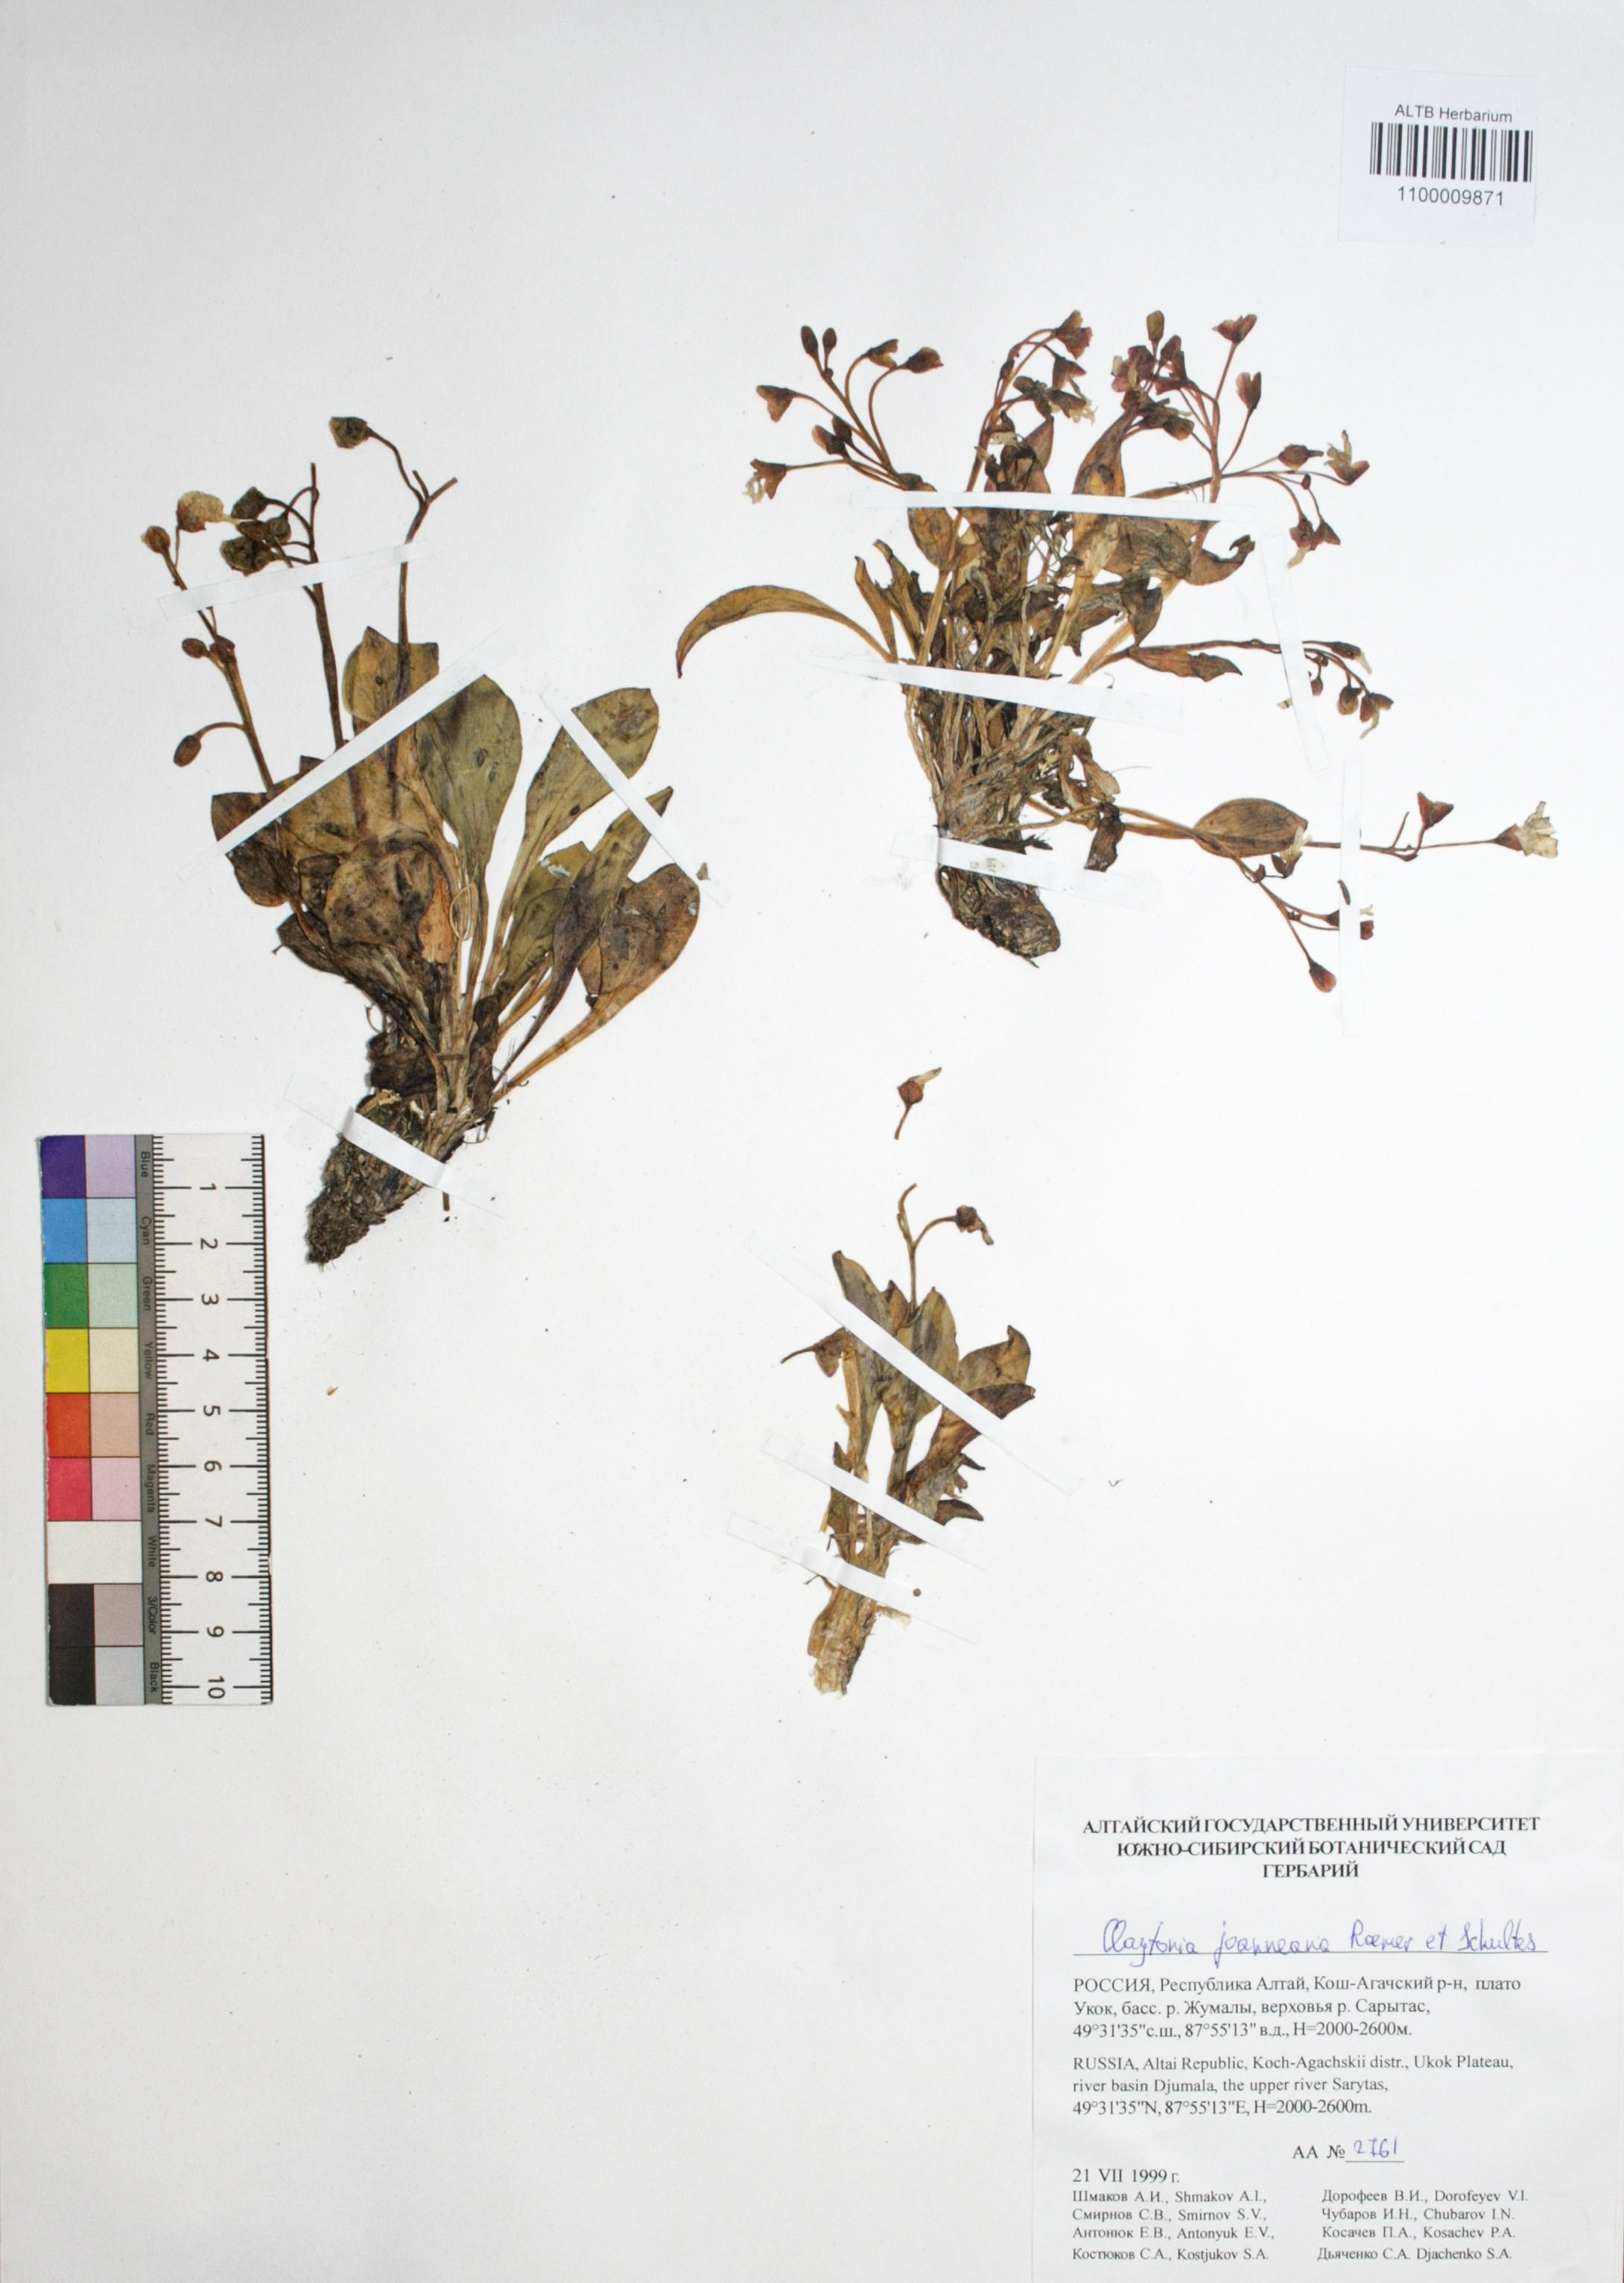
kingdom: Plantae
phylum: Tracheophyta
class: Magnoliopsida
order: Caryophyllales
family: Montiaceae
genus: Claytonia
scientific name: Claytonia joanneana
